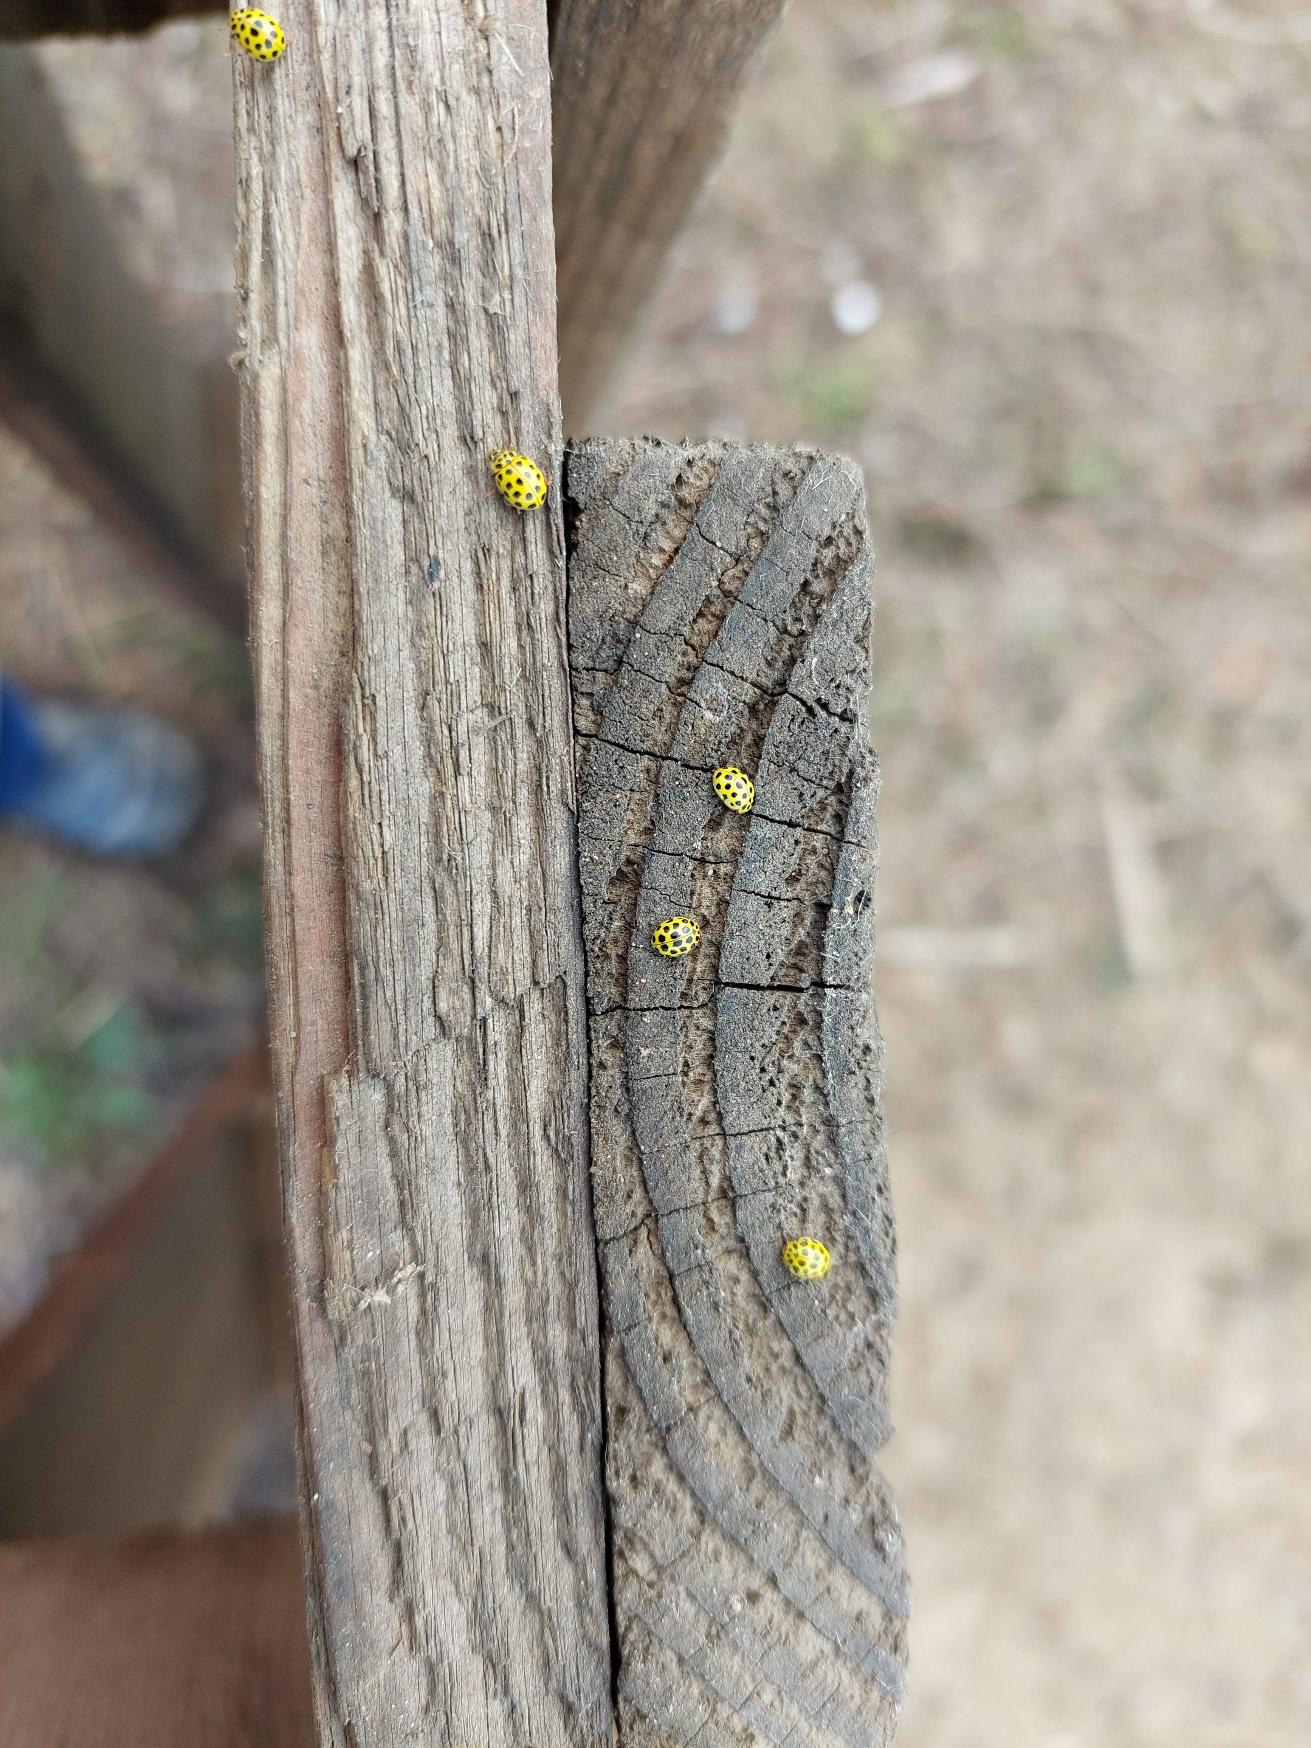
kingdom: Animalia
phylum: Arthropoda
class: Insecta
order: Coleoptera
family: Coccinellidae
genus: Psyllobora
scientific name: Psyllobora vigintiduopunctata
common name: Toogtyveplettet mariehøne
